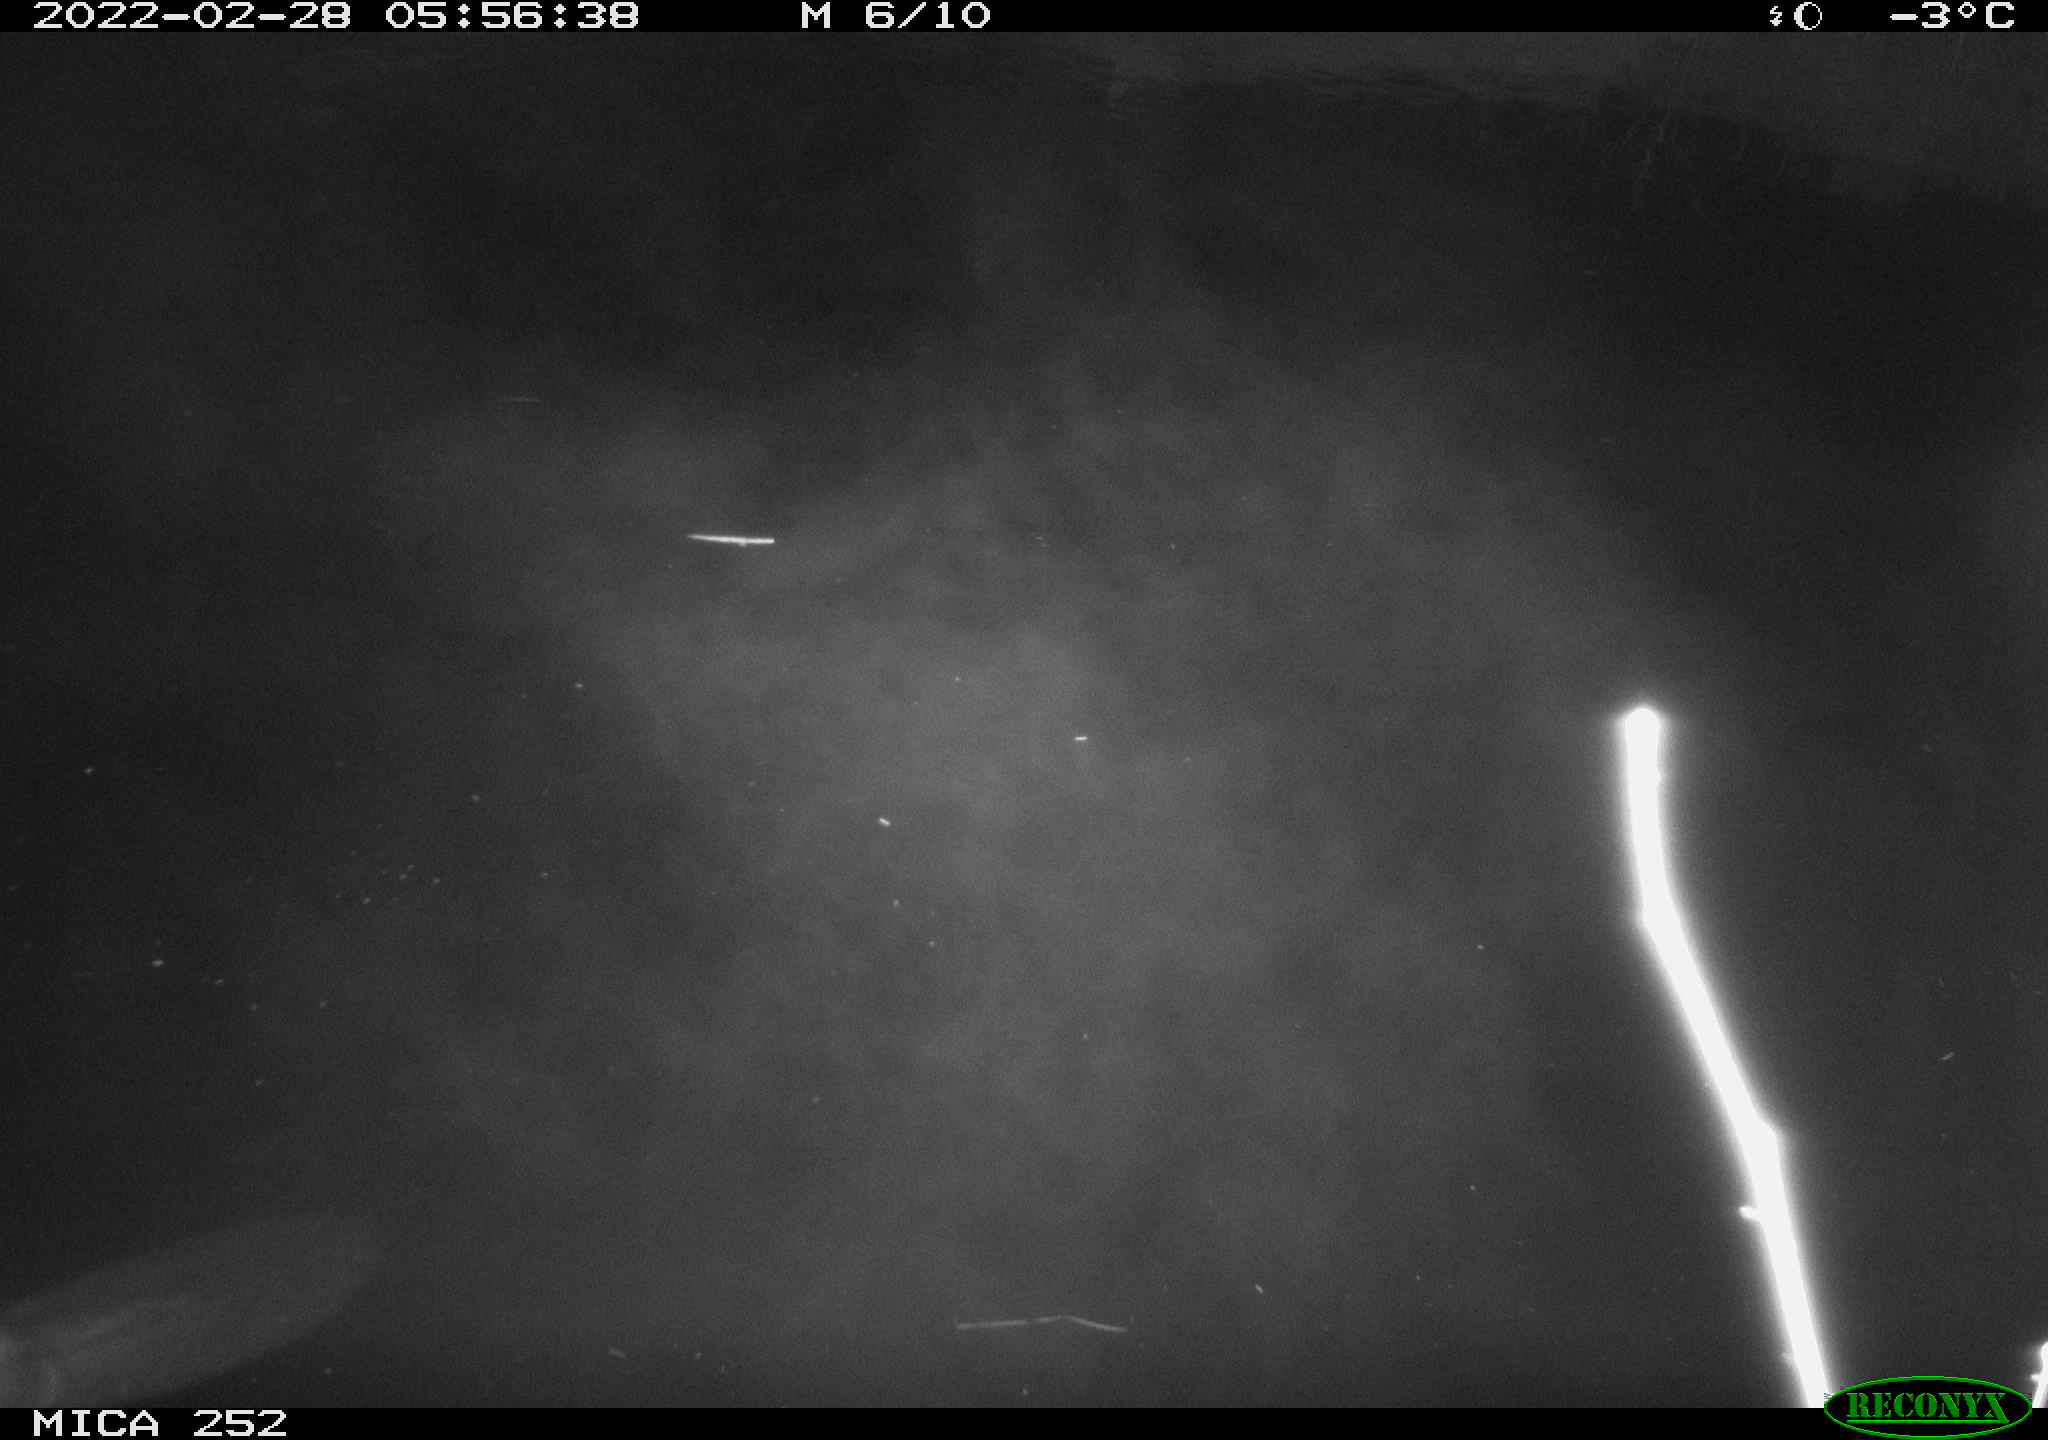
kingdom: Animalia
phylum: Chordata
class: Mammalia
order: Rodentia
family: Castoridae
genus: Castor
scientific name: Castor fiber
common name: Eurasian beaver
